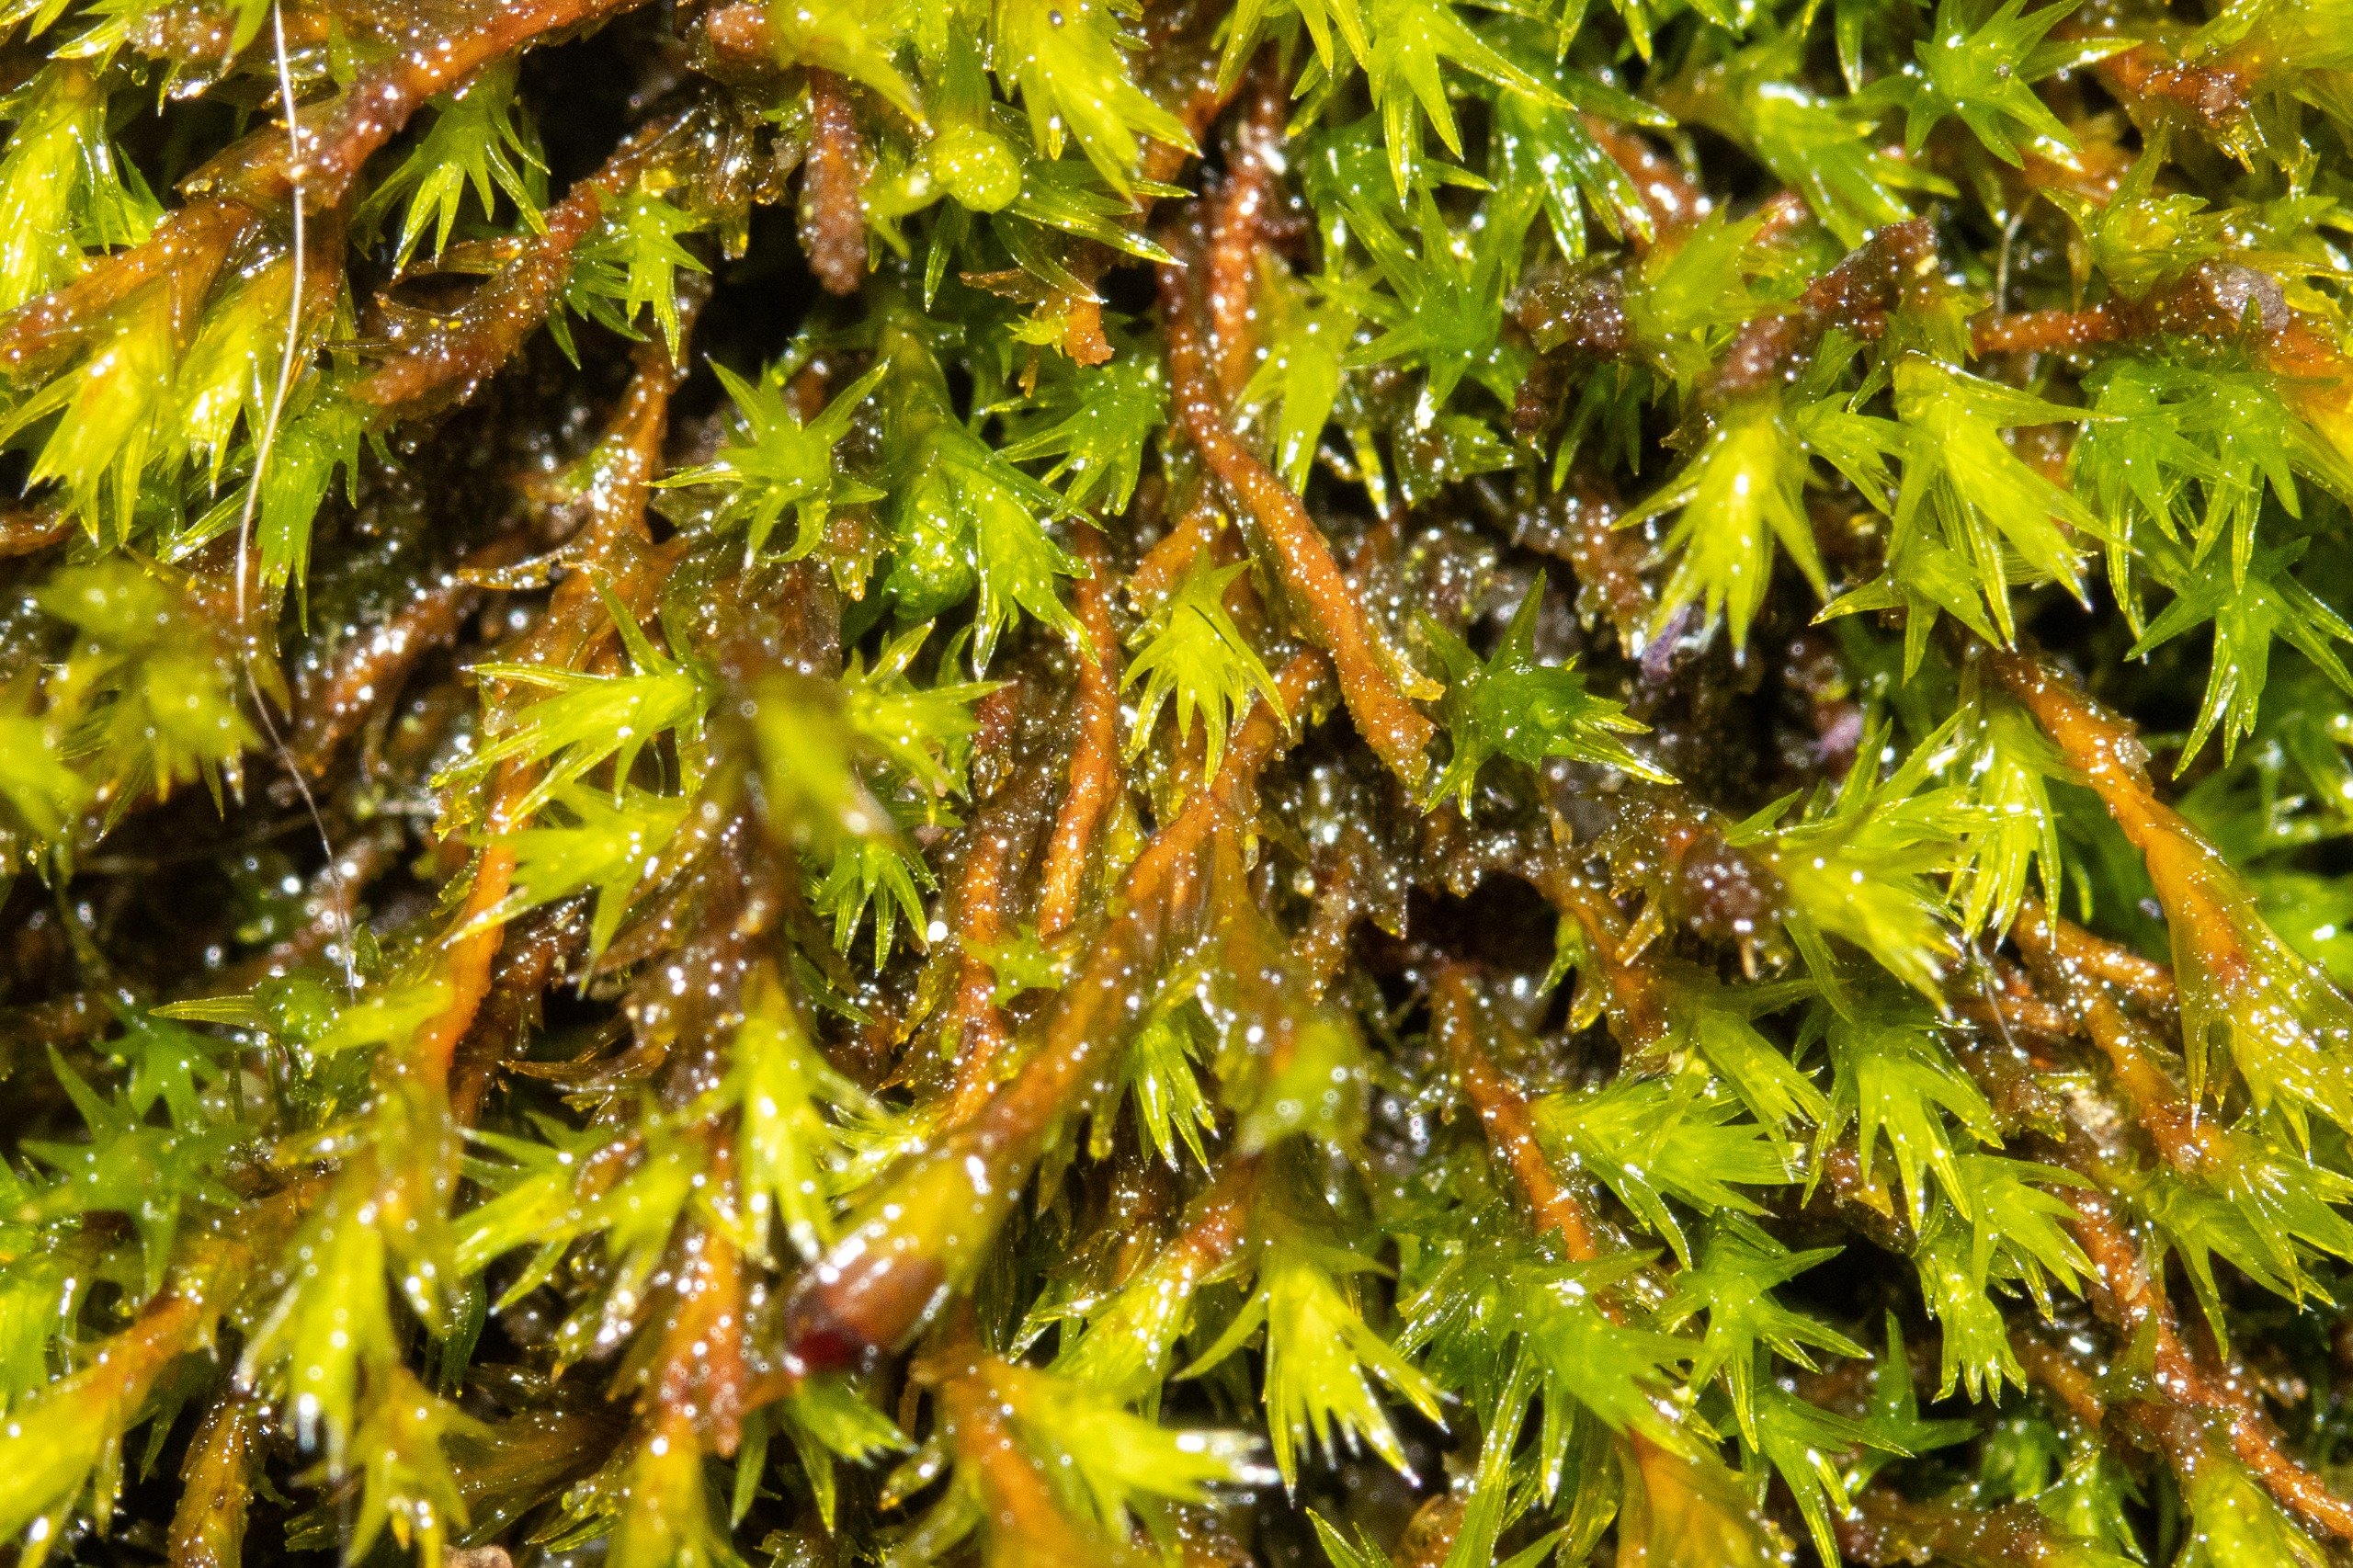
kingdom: Plantae
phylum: Bryophyta
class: Bryopsida
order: Grimmiales
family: Grimmiaceae
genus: Schistidium
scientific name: Schistidium
